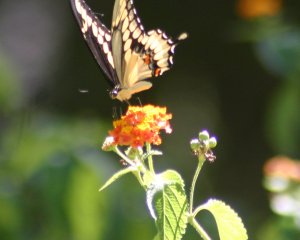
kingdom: Animalia
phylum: Arthropoda
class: Insecta
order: Lepidoptera
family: Papilionidae
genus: Papilio
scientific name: Papilio cresphontes
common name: Eastern Giant Swallowtail
